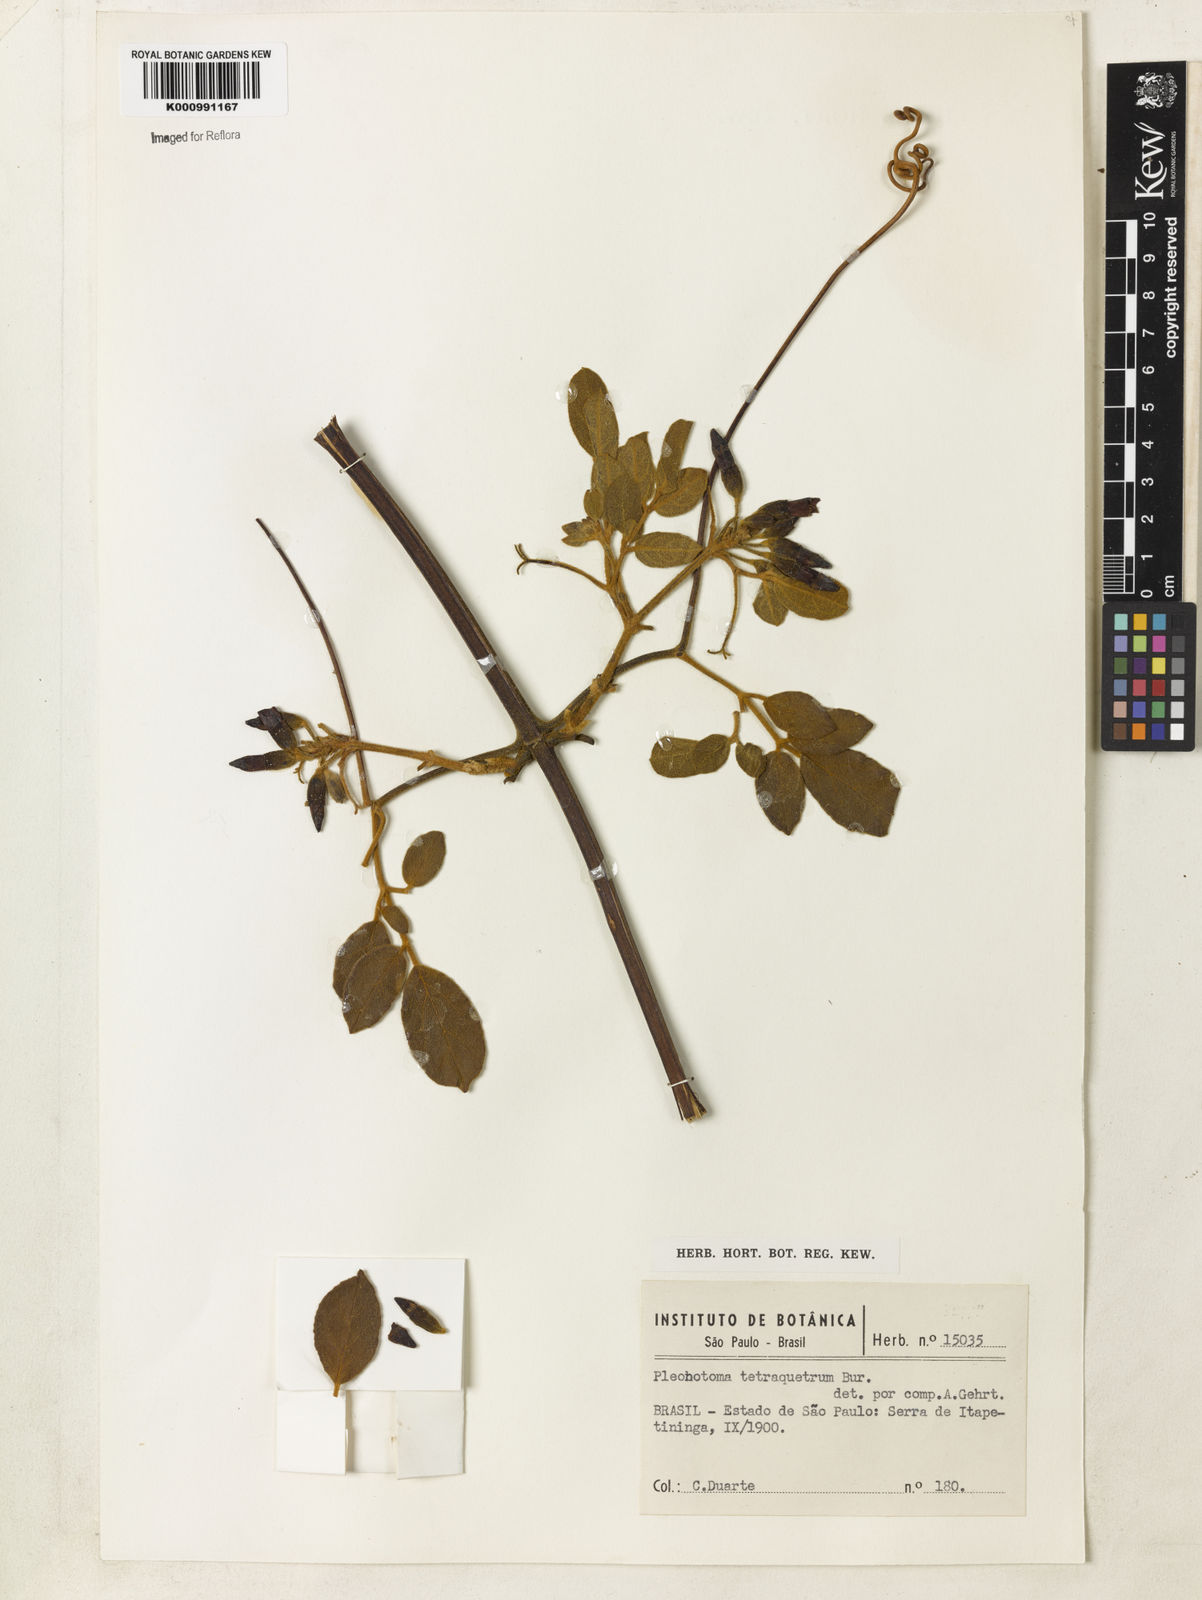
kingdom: Plantae
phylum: Tracheophyta
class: Magnoliopsida
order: Lamiales
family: Bignoniaceae
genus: Pleonotoma
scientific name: Pleonotoma tetraquetra
